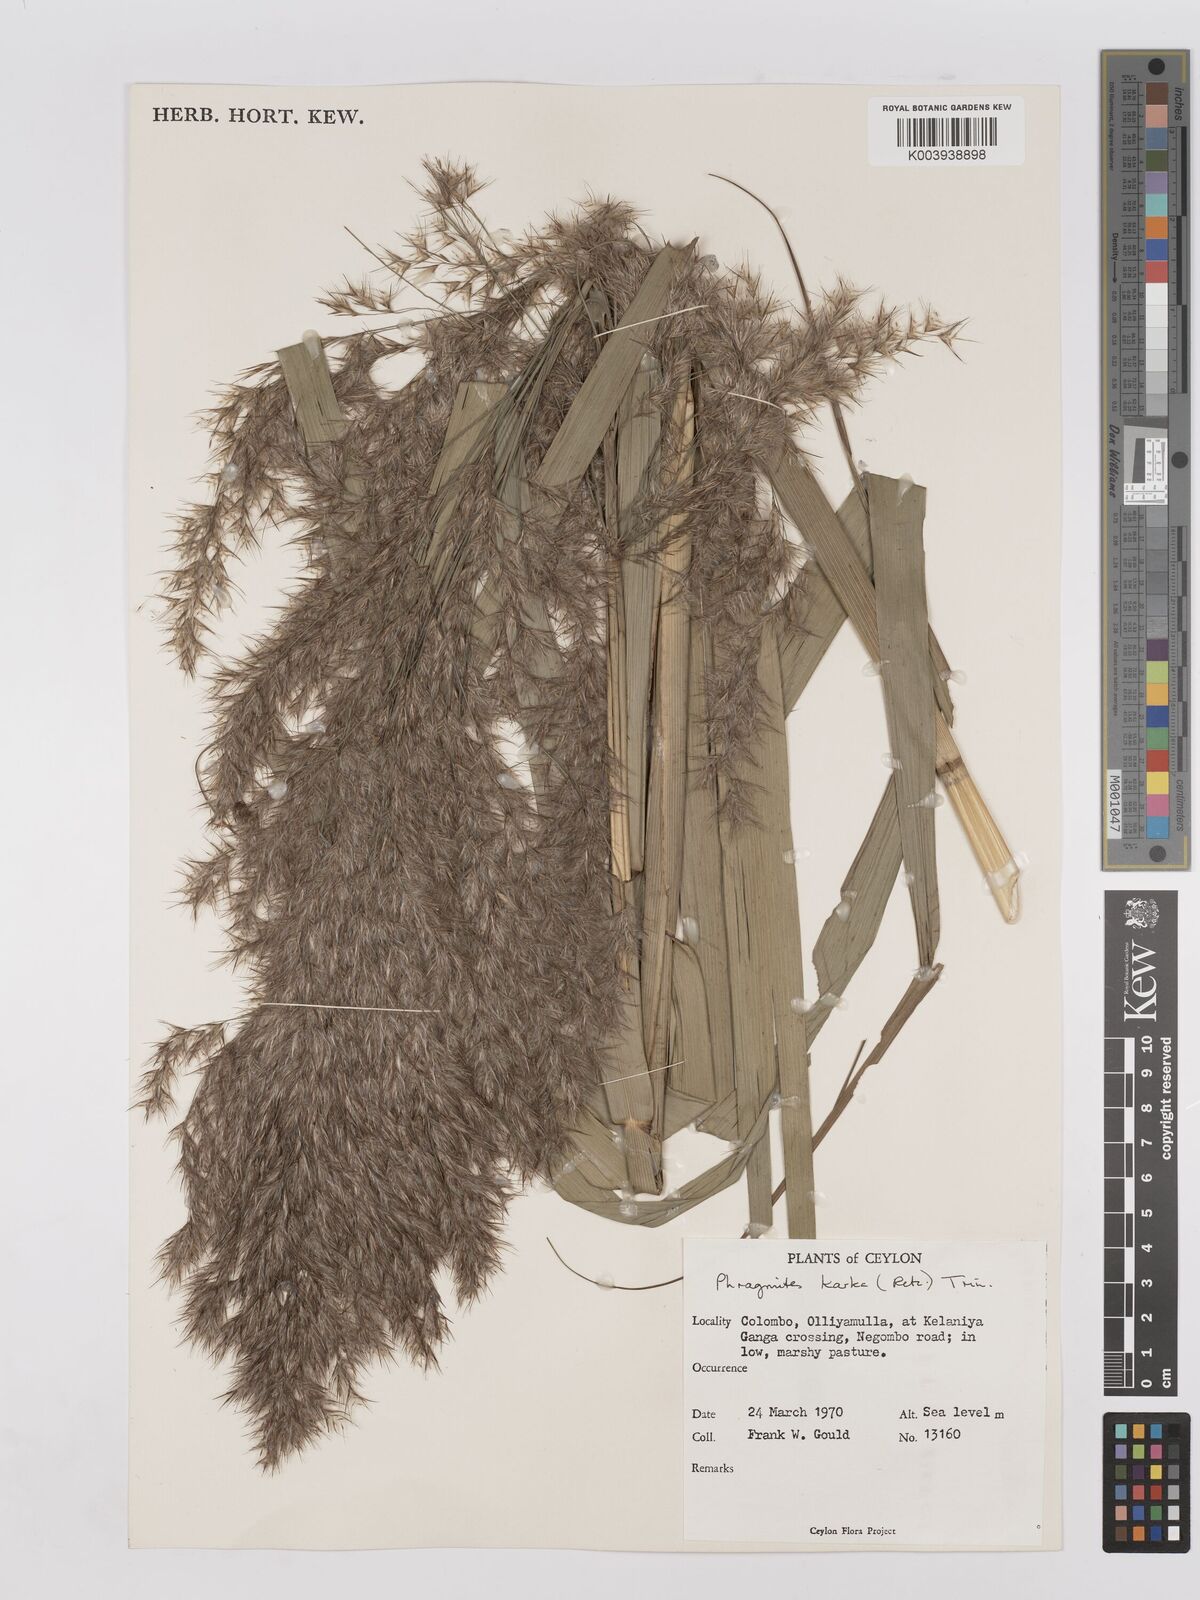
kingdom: Plantae
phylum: Tracheophyta
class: Liliopsida
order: Poales
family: Poaceae
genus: Phragmites
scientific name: Phragmites karka
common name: Tropical reed
